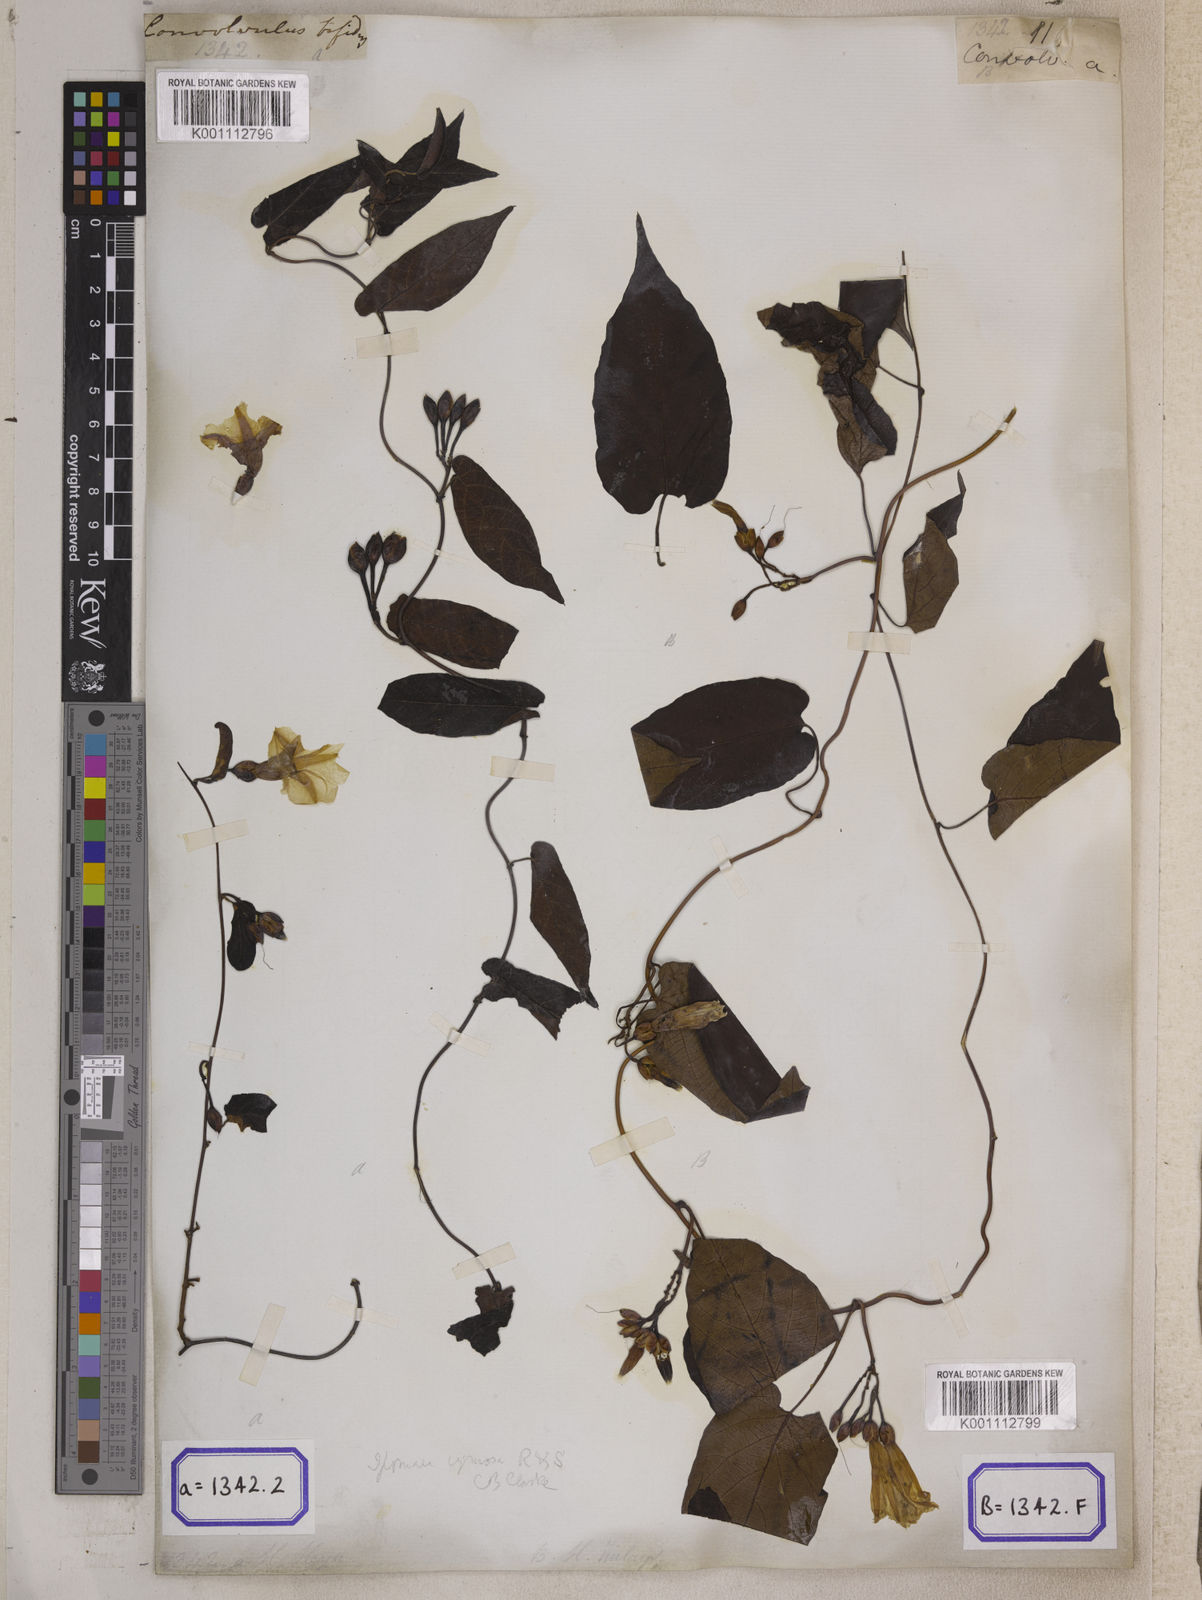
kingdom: Plantae
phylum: Tracheophyta
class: Magnoliopsida
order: Solanales
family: Convolvulaceae
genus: Camonea
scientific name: Camonea umbellata
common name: Hogvine
